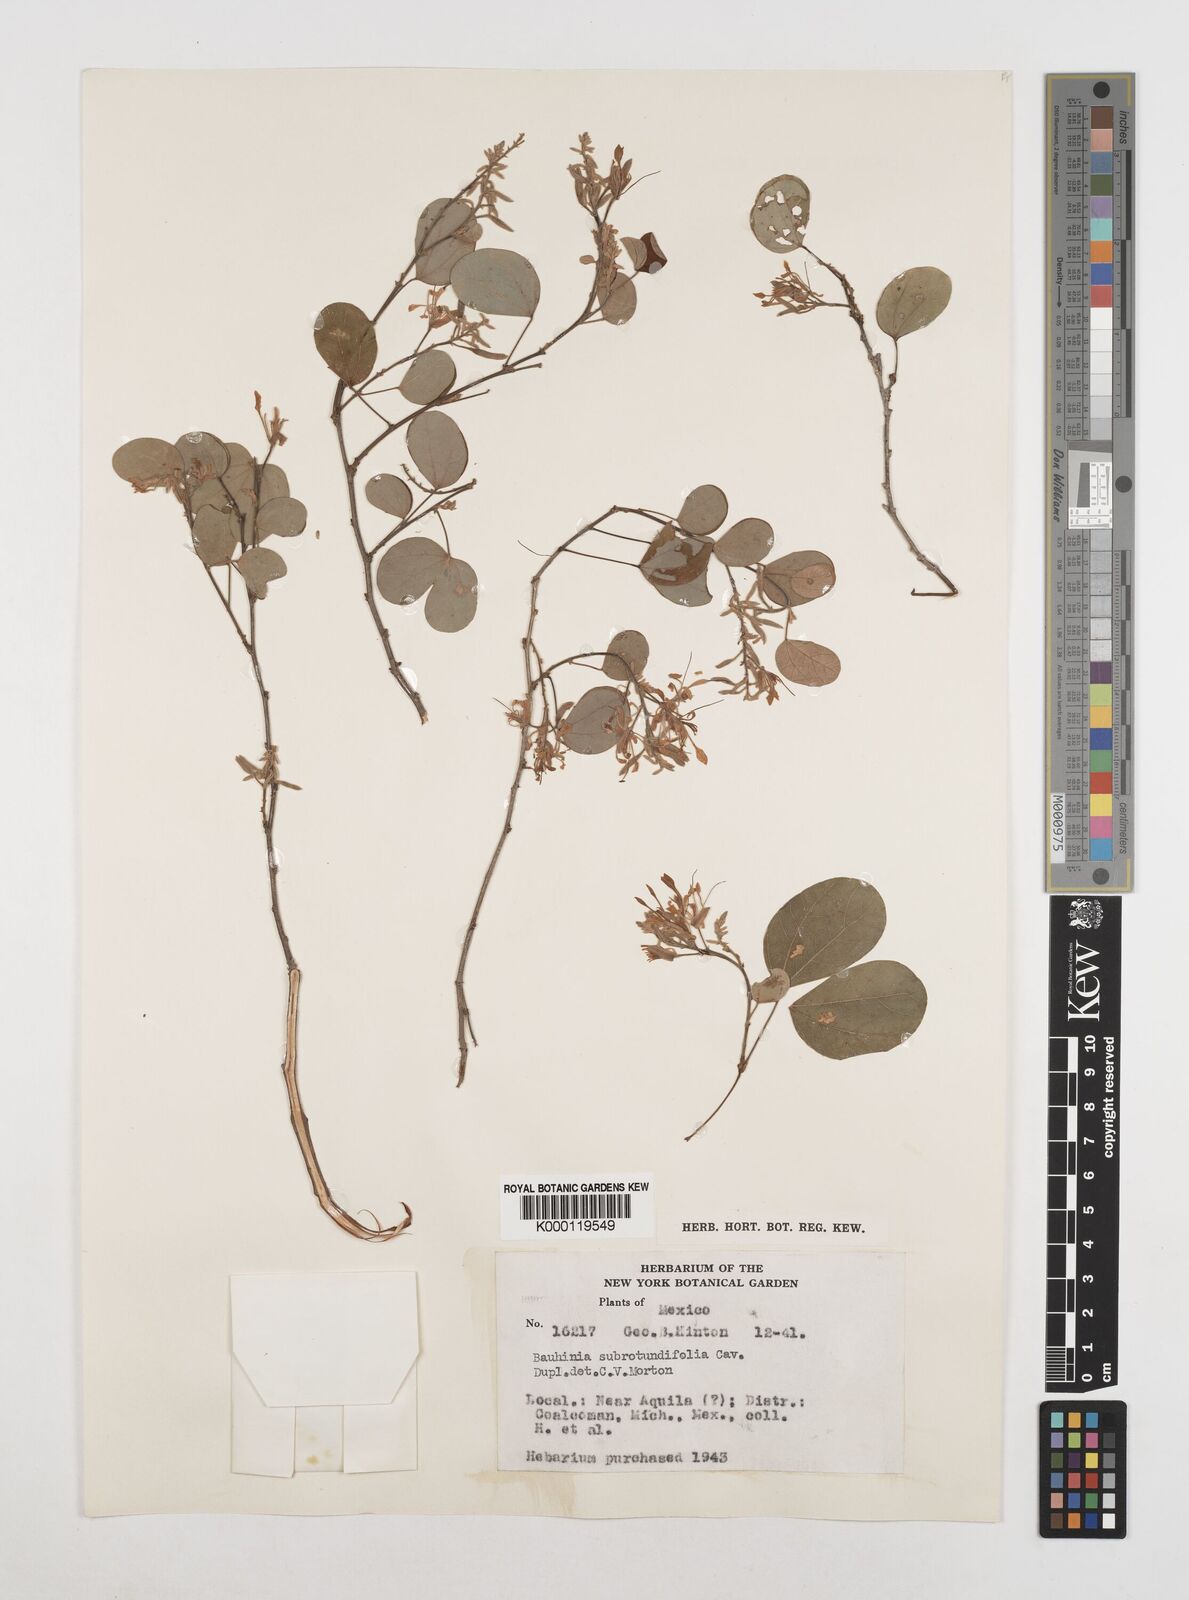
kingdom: Plantae
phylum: Tracheophyta
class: Magnoliopsida
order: Fabales
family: Fabaceae
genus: Bauhinia
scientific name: Bauhinia subrotundifolia
